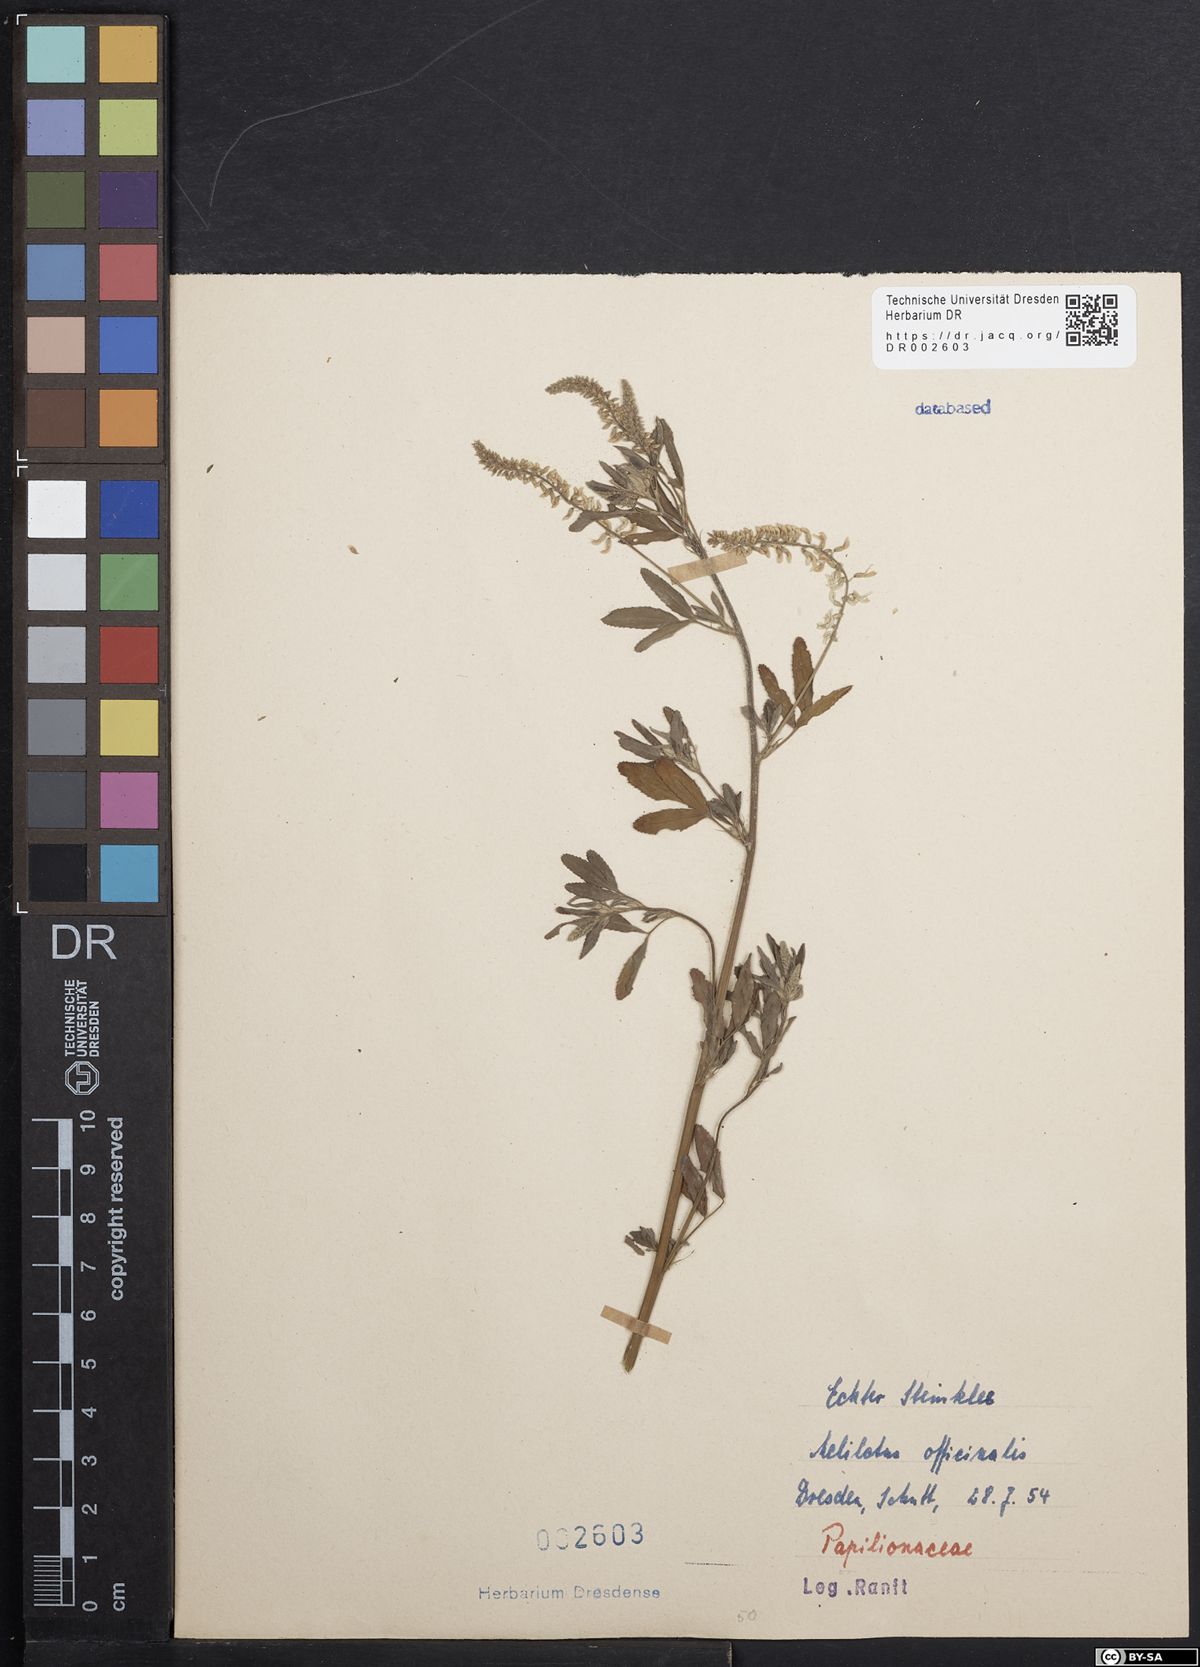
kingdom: Plantae
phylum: Tracheophyta
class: Magnoliopsida
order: Fabales
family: Fabaceae
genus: Melilotus
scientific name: Melilotus officinalis
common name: Sweetclover
